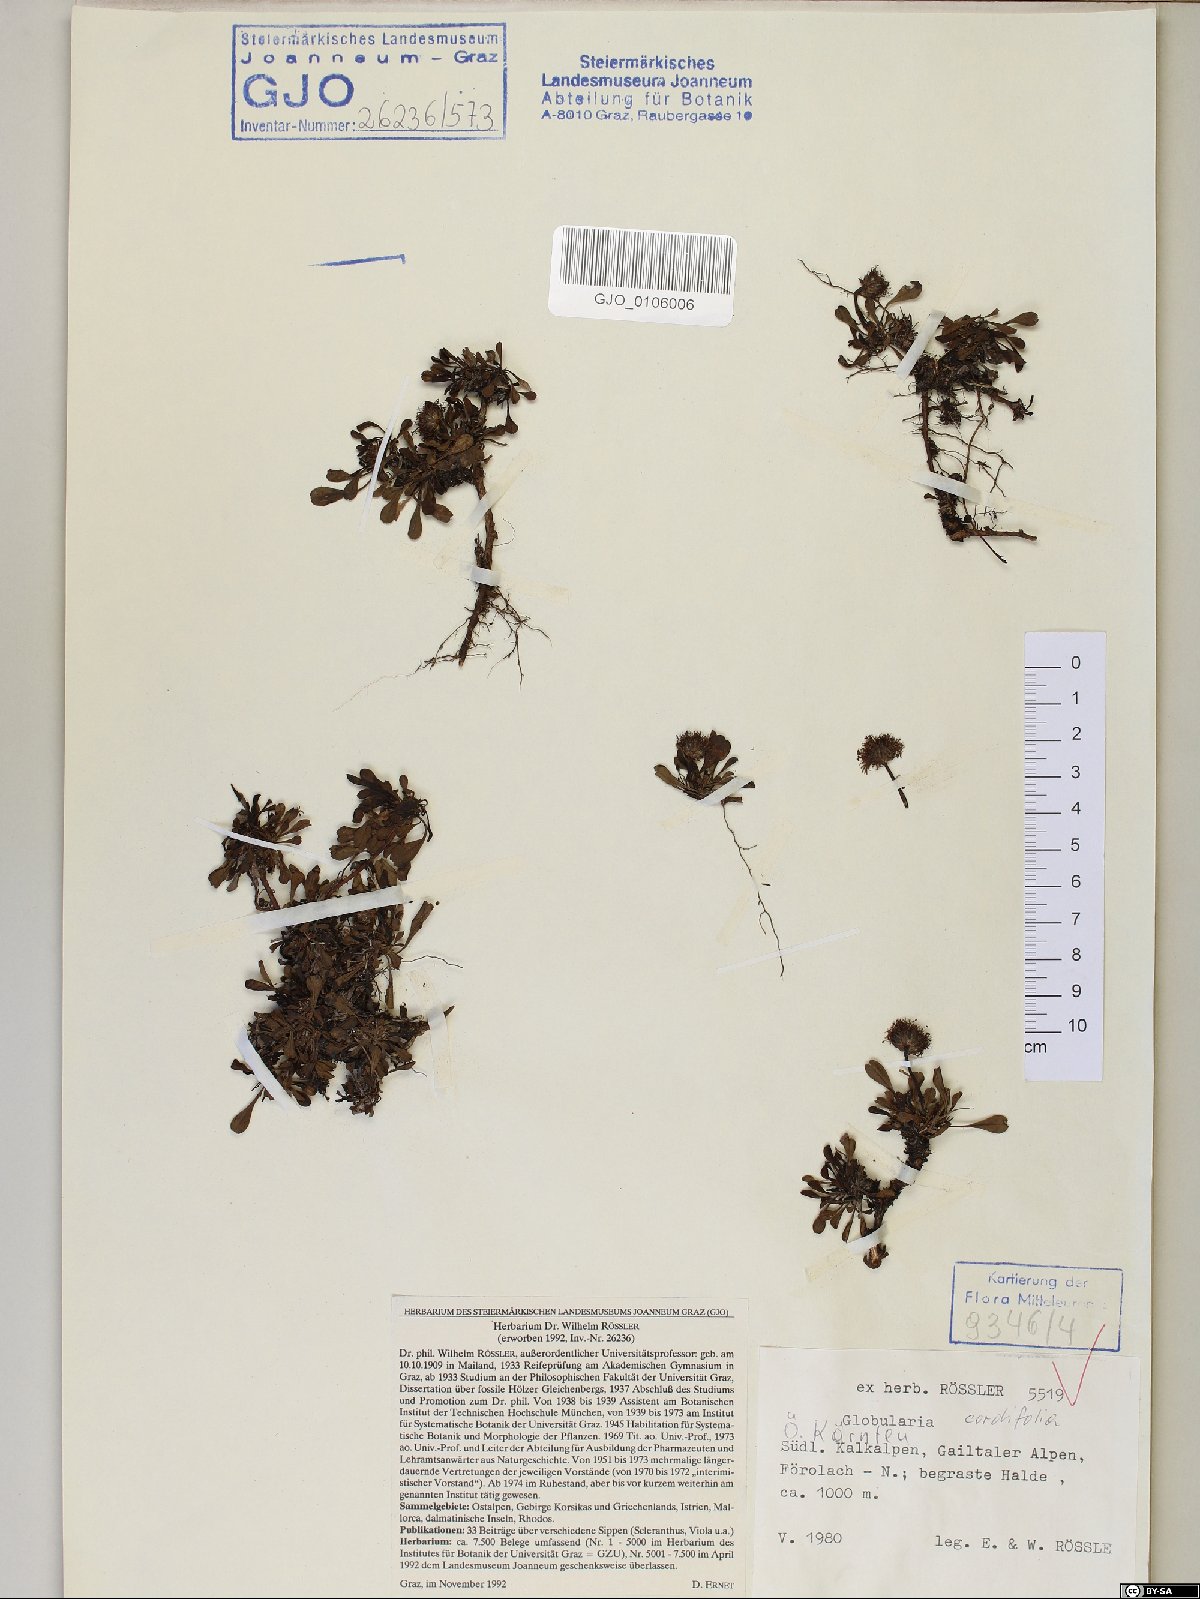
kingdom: Plantae
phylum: Tracheophyta
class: Magnoliopsida
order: Lamiales
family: Plantaginaceae
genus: Globularia
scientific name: Globularia cordifolia
